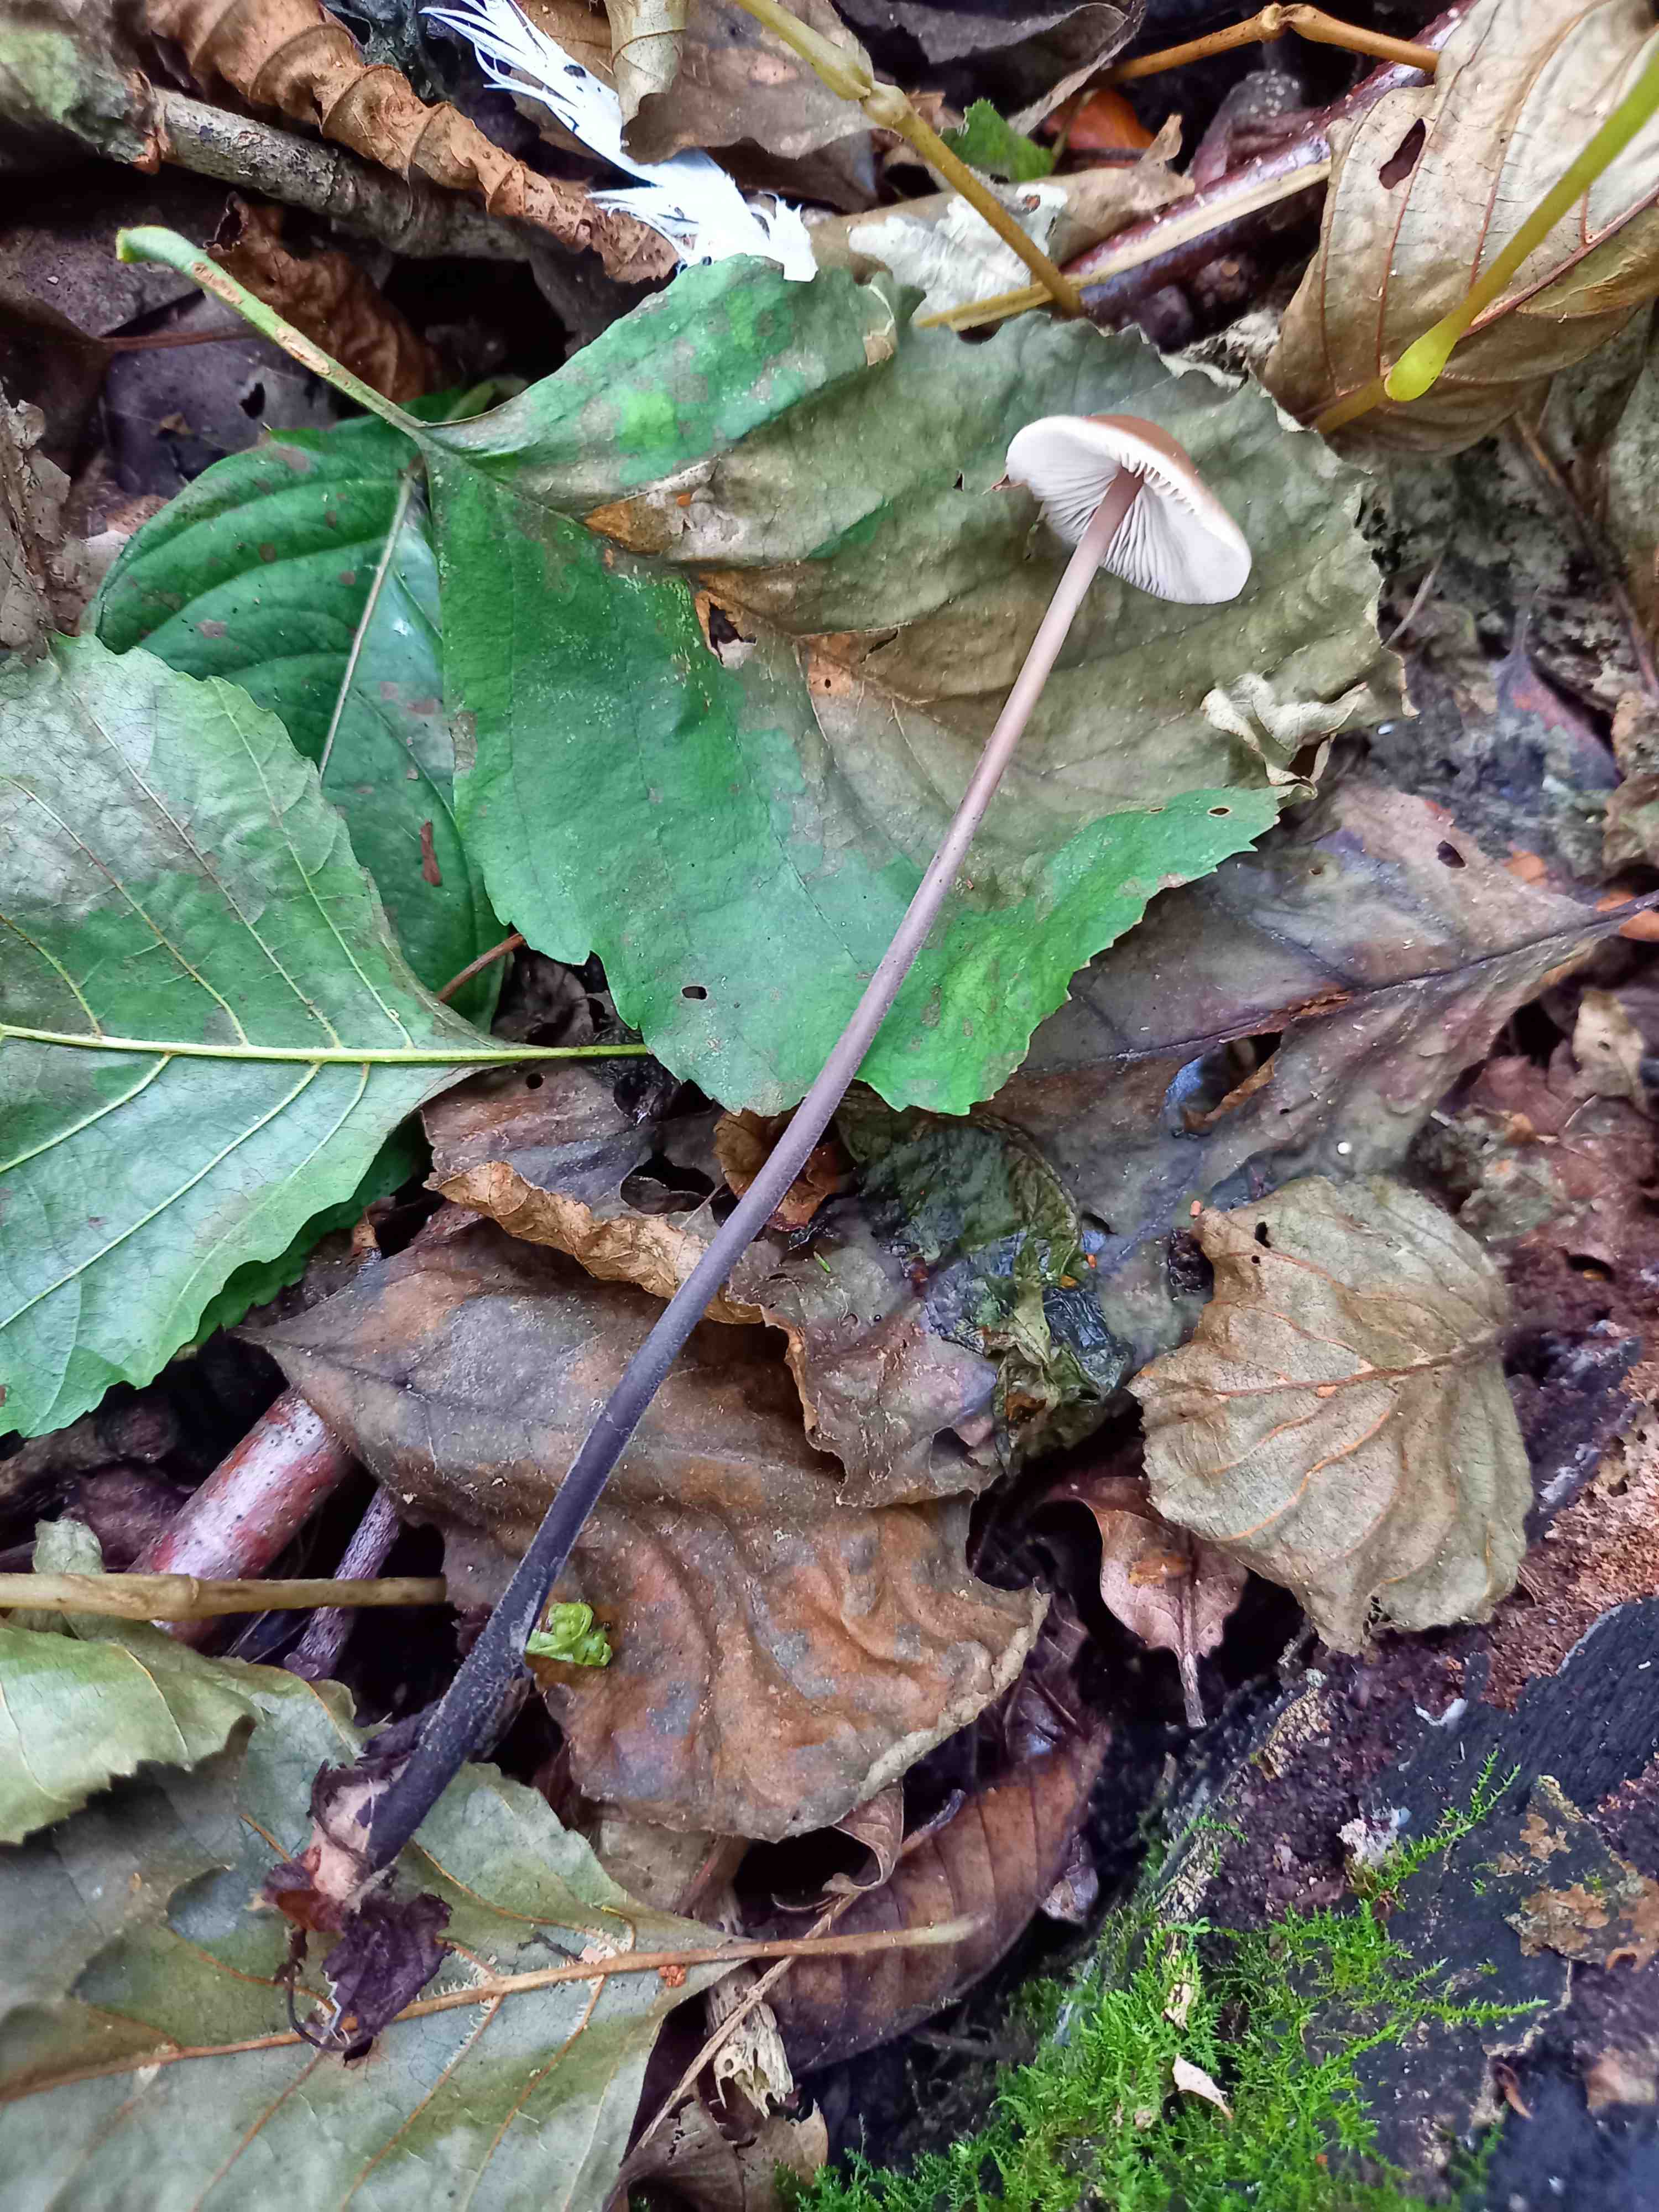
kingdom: Fungi
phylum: Basidiomycota
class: Agaricomycetes
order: Agaricales
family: Omphalotaceae
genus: Mycetinis
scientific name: Mycetinis alliaceus
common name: stor løghat
